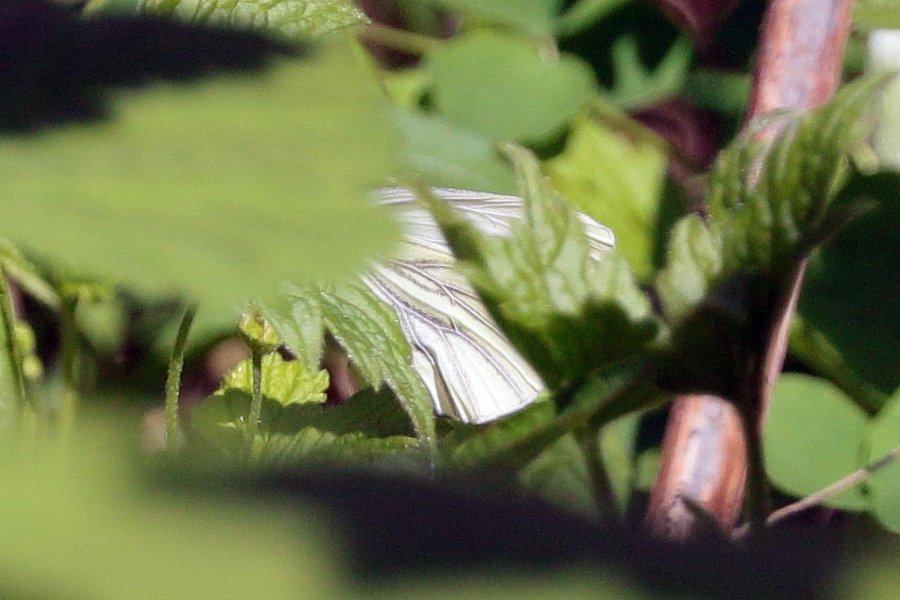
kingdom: Animalia
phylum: Arthropoda
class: Insecta
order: Lepidoptera
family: Pieridae
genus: Pieris
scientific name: Pieris oleracea
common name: Mustard White
